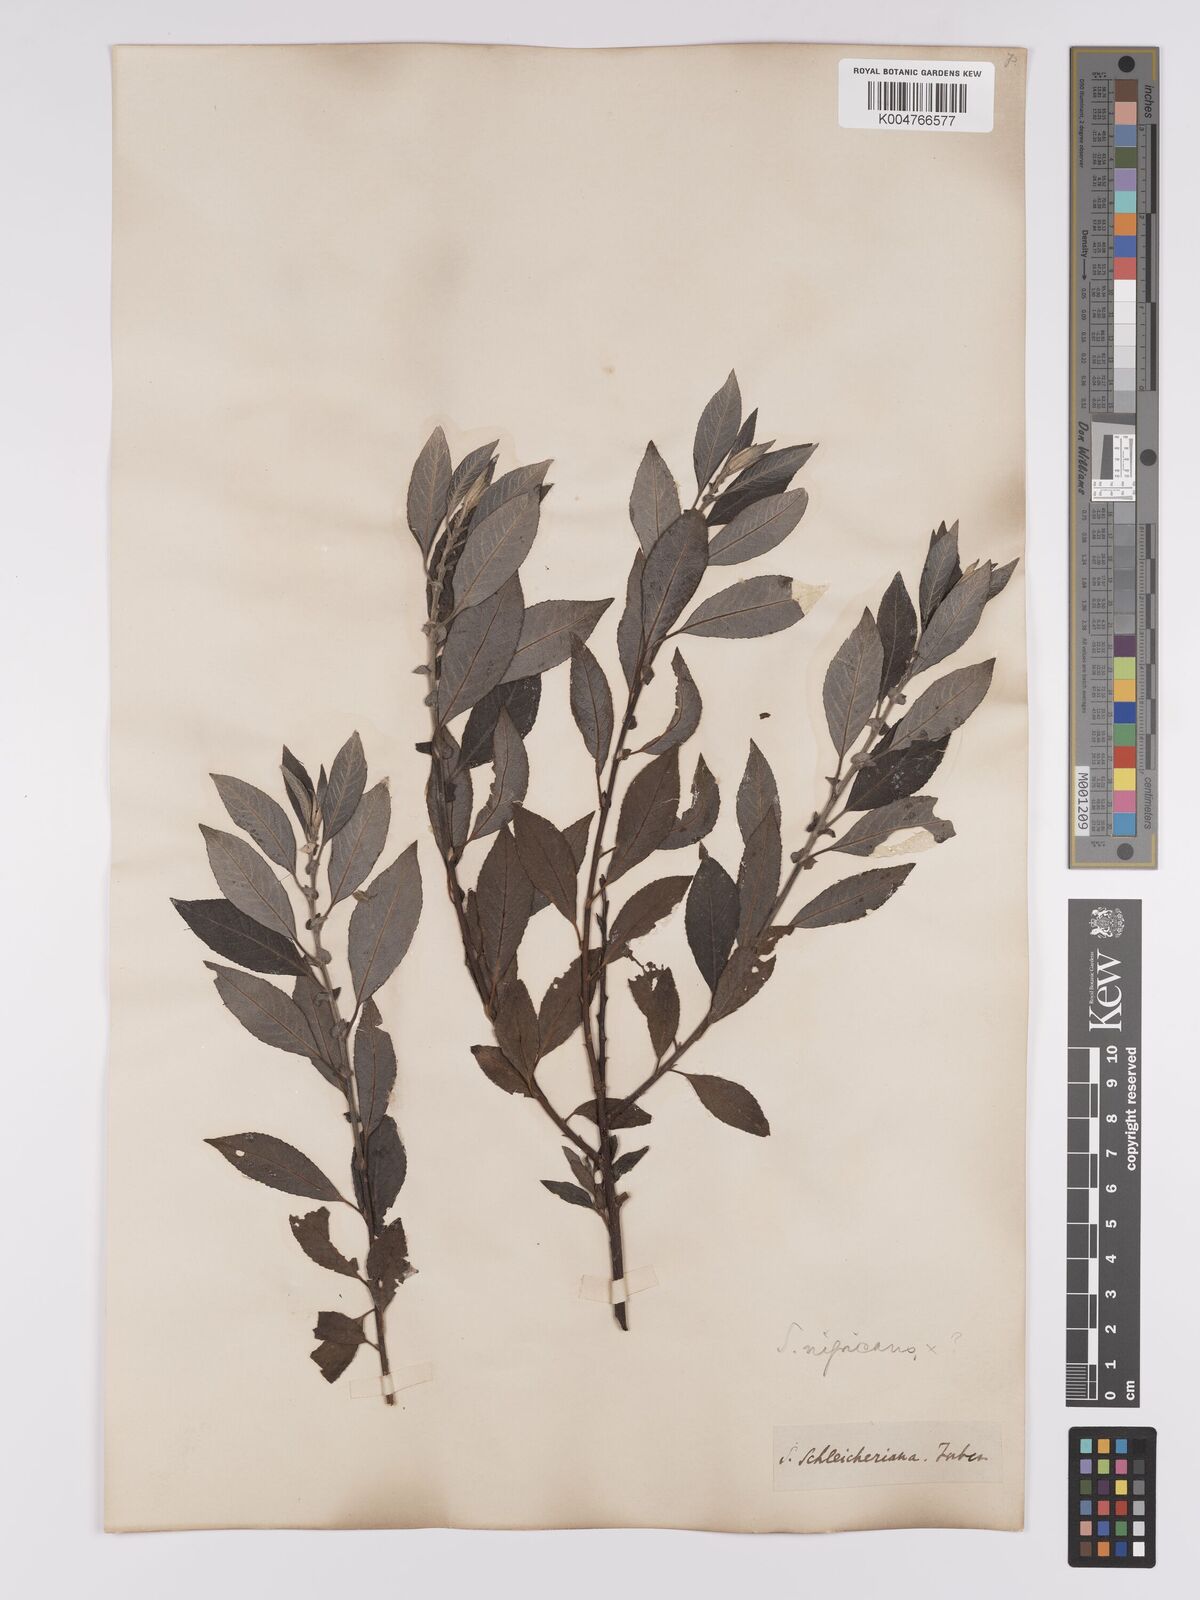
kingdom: Plantae
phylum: Tracheophyta
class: Magnoliopsida
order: Malpighiales
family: Salicaceae
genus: Salix
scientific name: Salix
